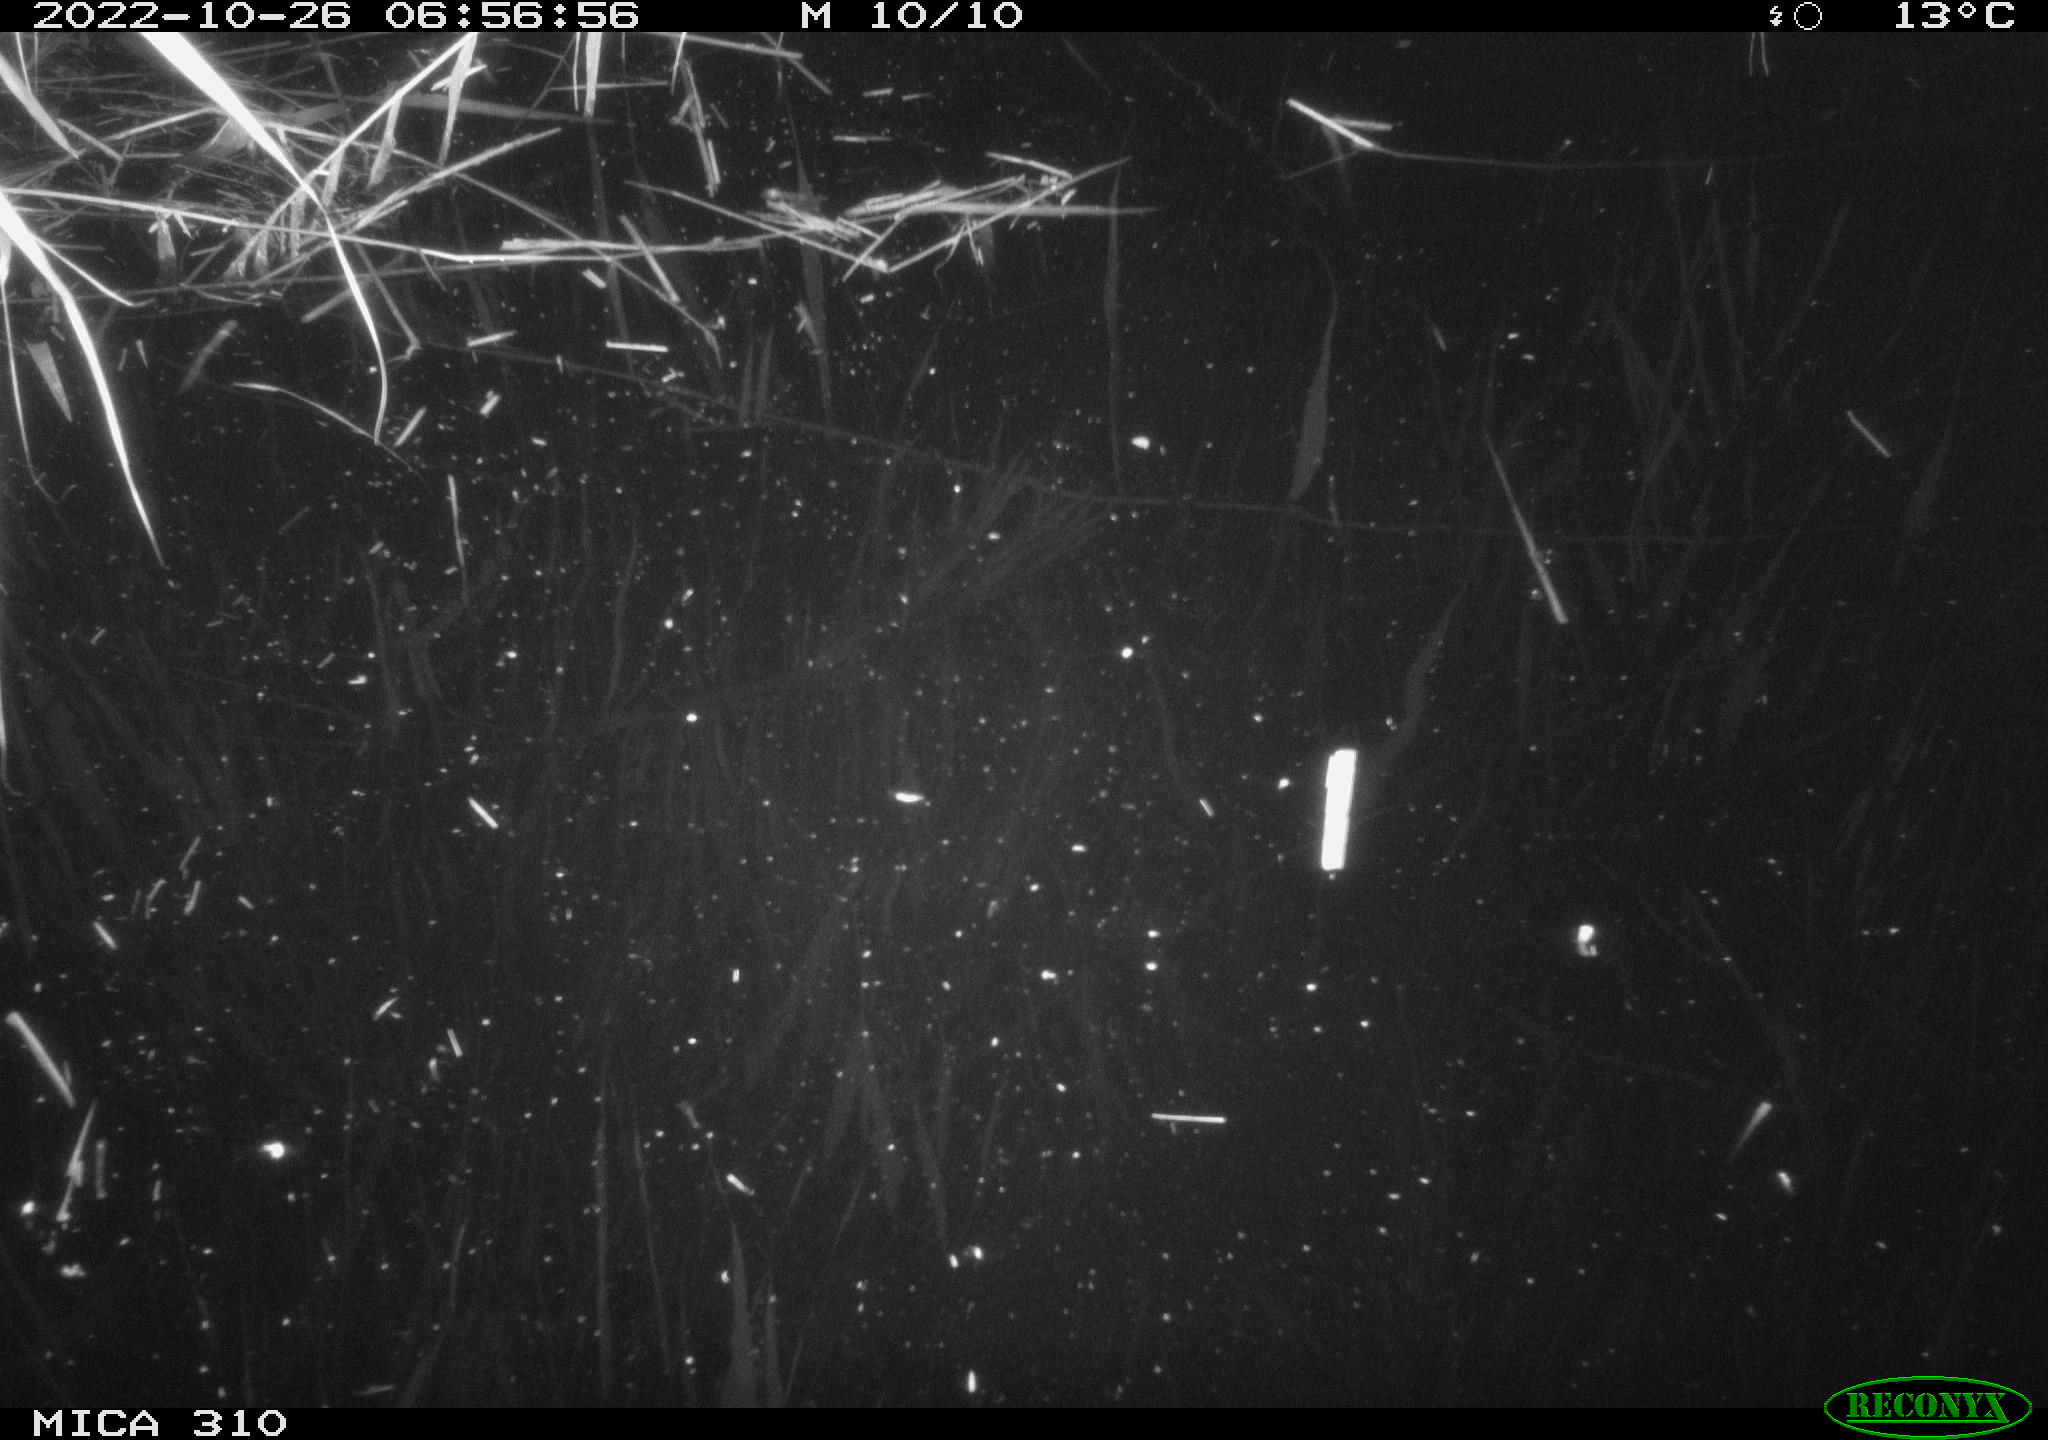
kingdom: Animalia
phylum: Chordata
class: Mammalia
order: Rodentia
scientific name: Rodentia
